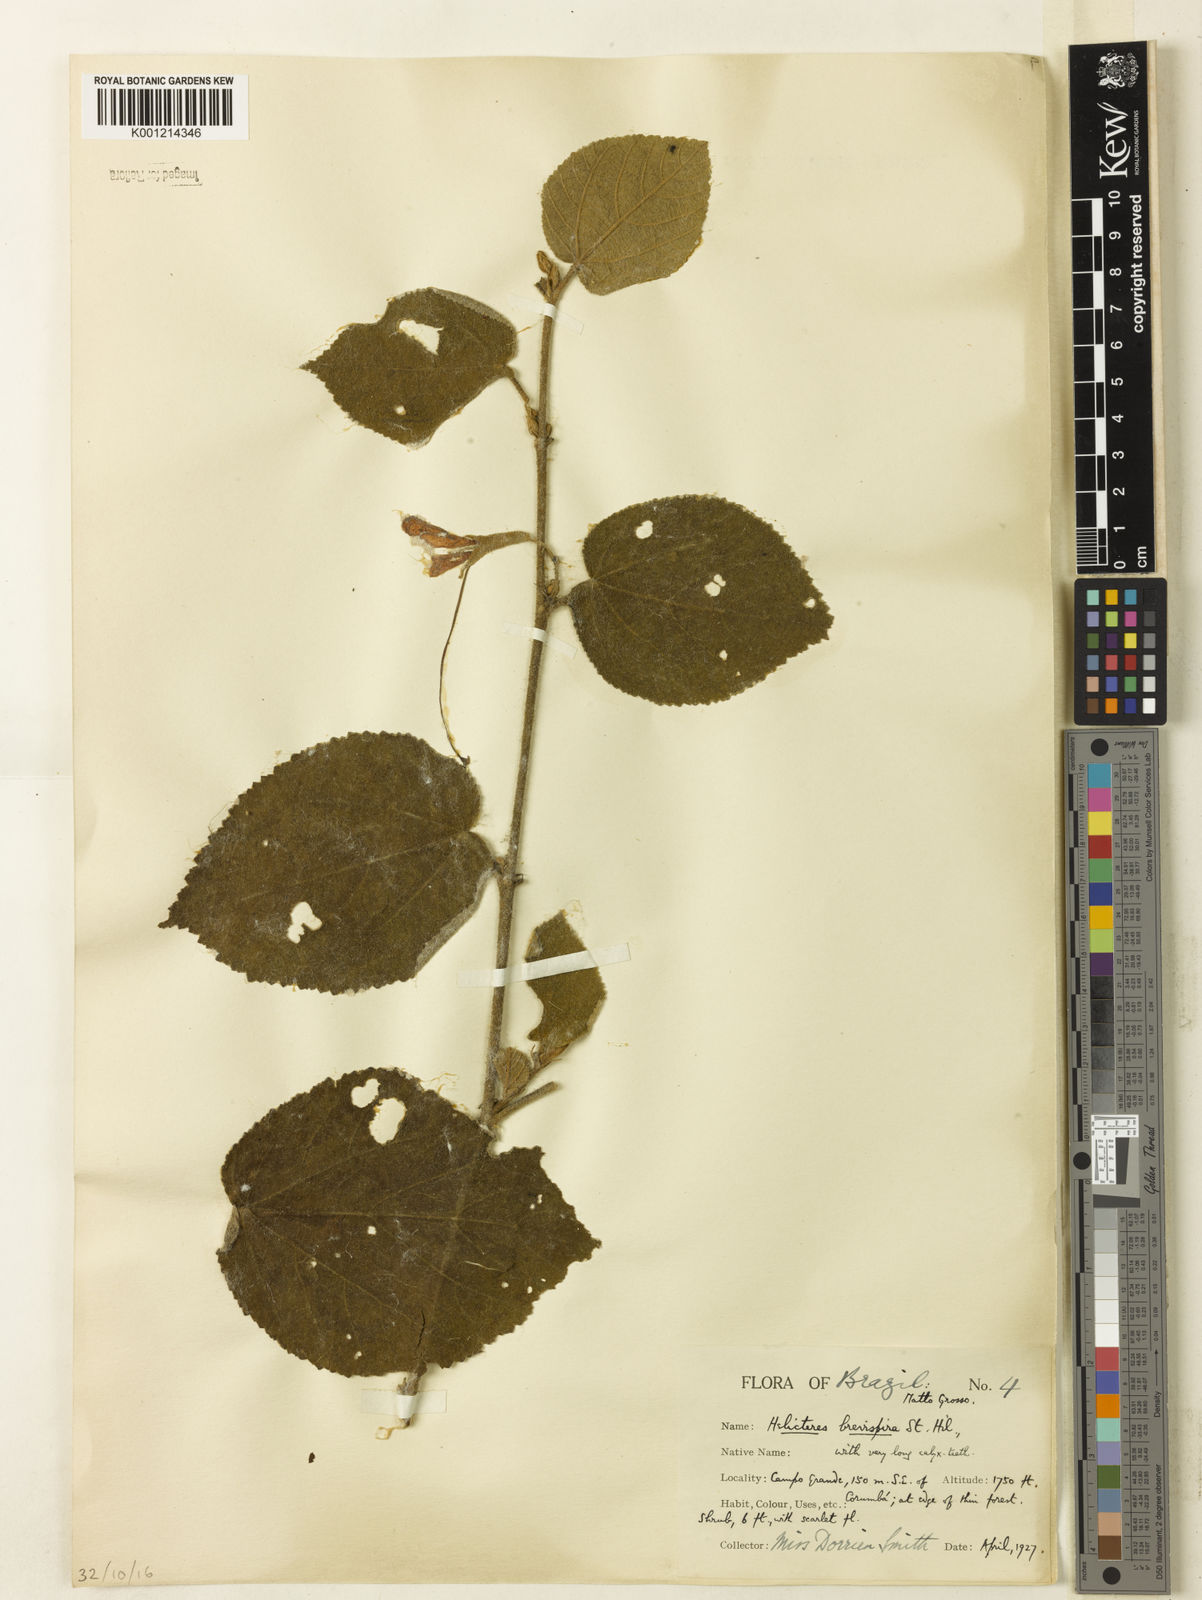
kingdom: Plantae
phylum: Tracheophyta
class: Magnoliopsida
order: Malvales
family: Malvaceae
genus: Helicteres
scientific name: Helicteres
